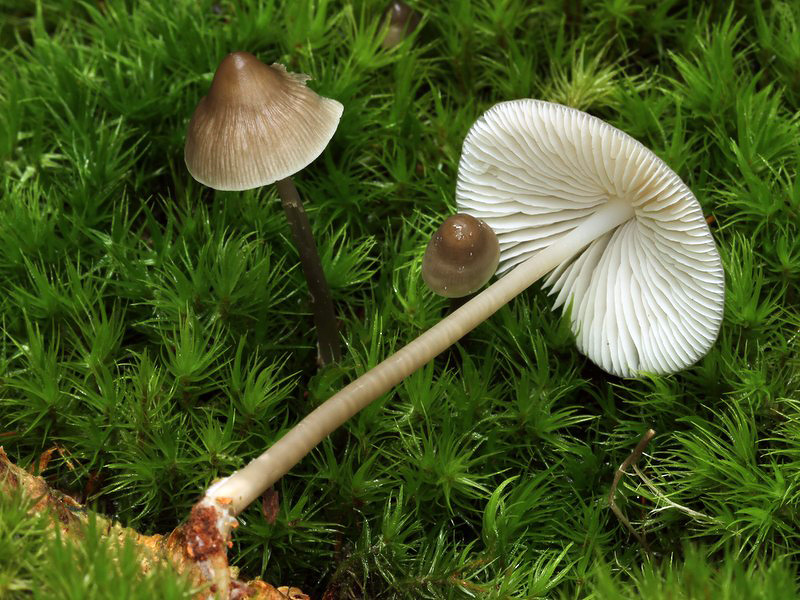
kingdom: Fungi
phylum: Basidiomycota
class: Agaricomycetes
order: Agaricales
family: Mycenaceae
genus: Mycena
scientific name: Mycena galericulata
